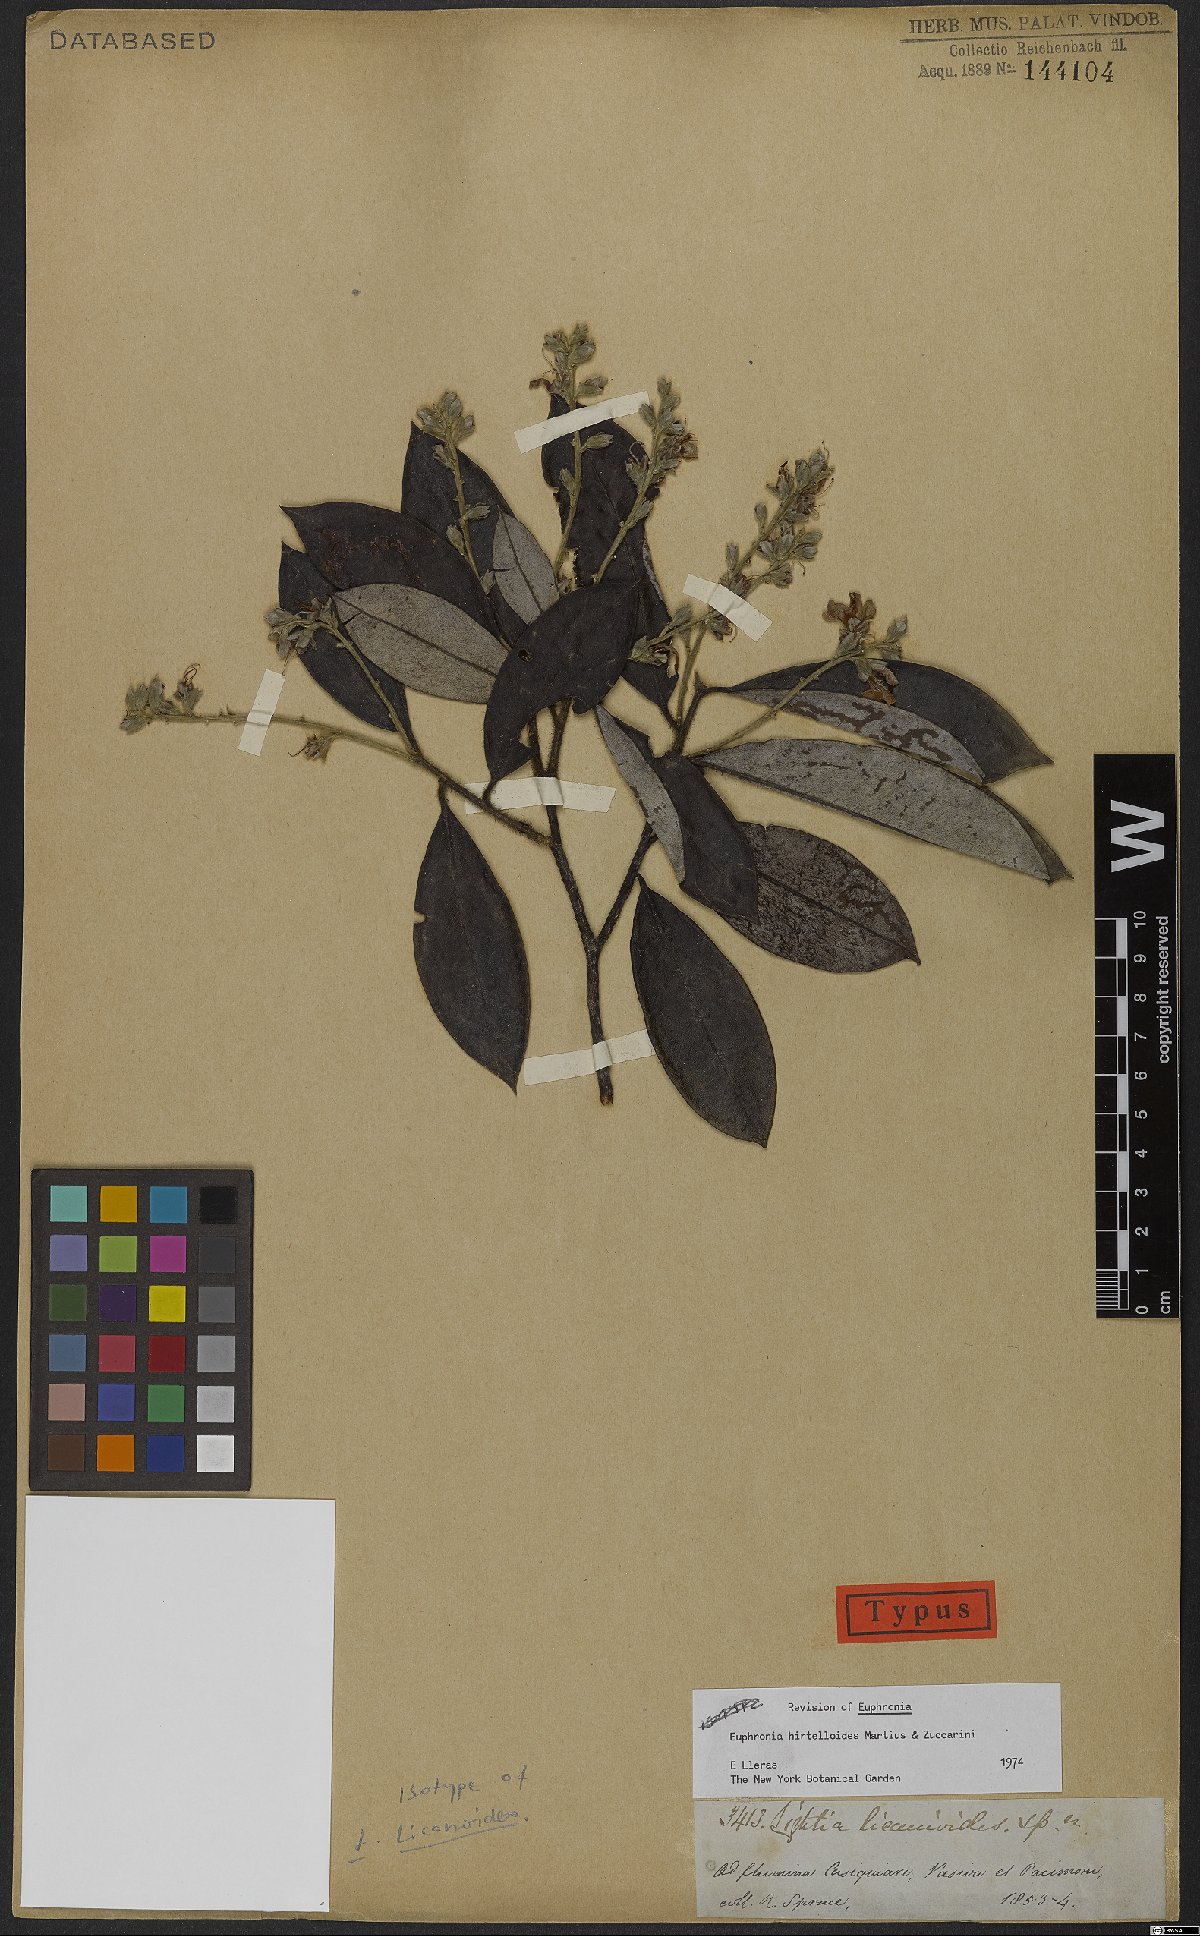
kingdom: Plantae
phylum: Tracheophyta
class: Magnoliopsida
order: Malpighiales
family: Euphroniaceae
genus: Euphronia
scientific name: Euphronia hirtelloides
